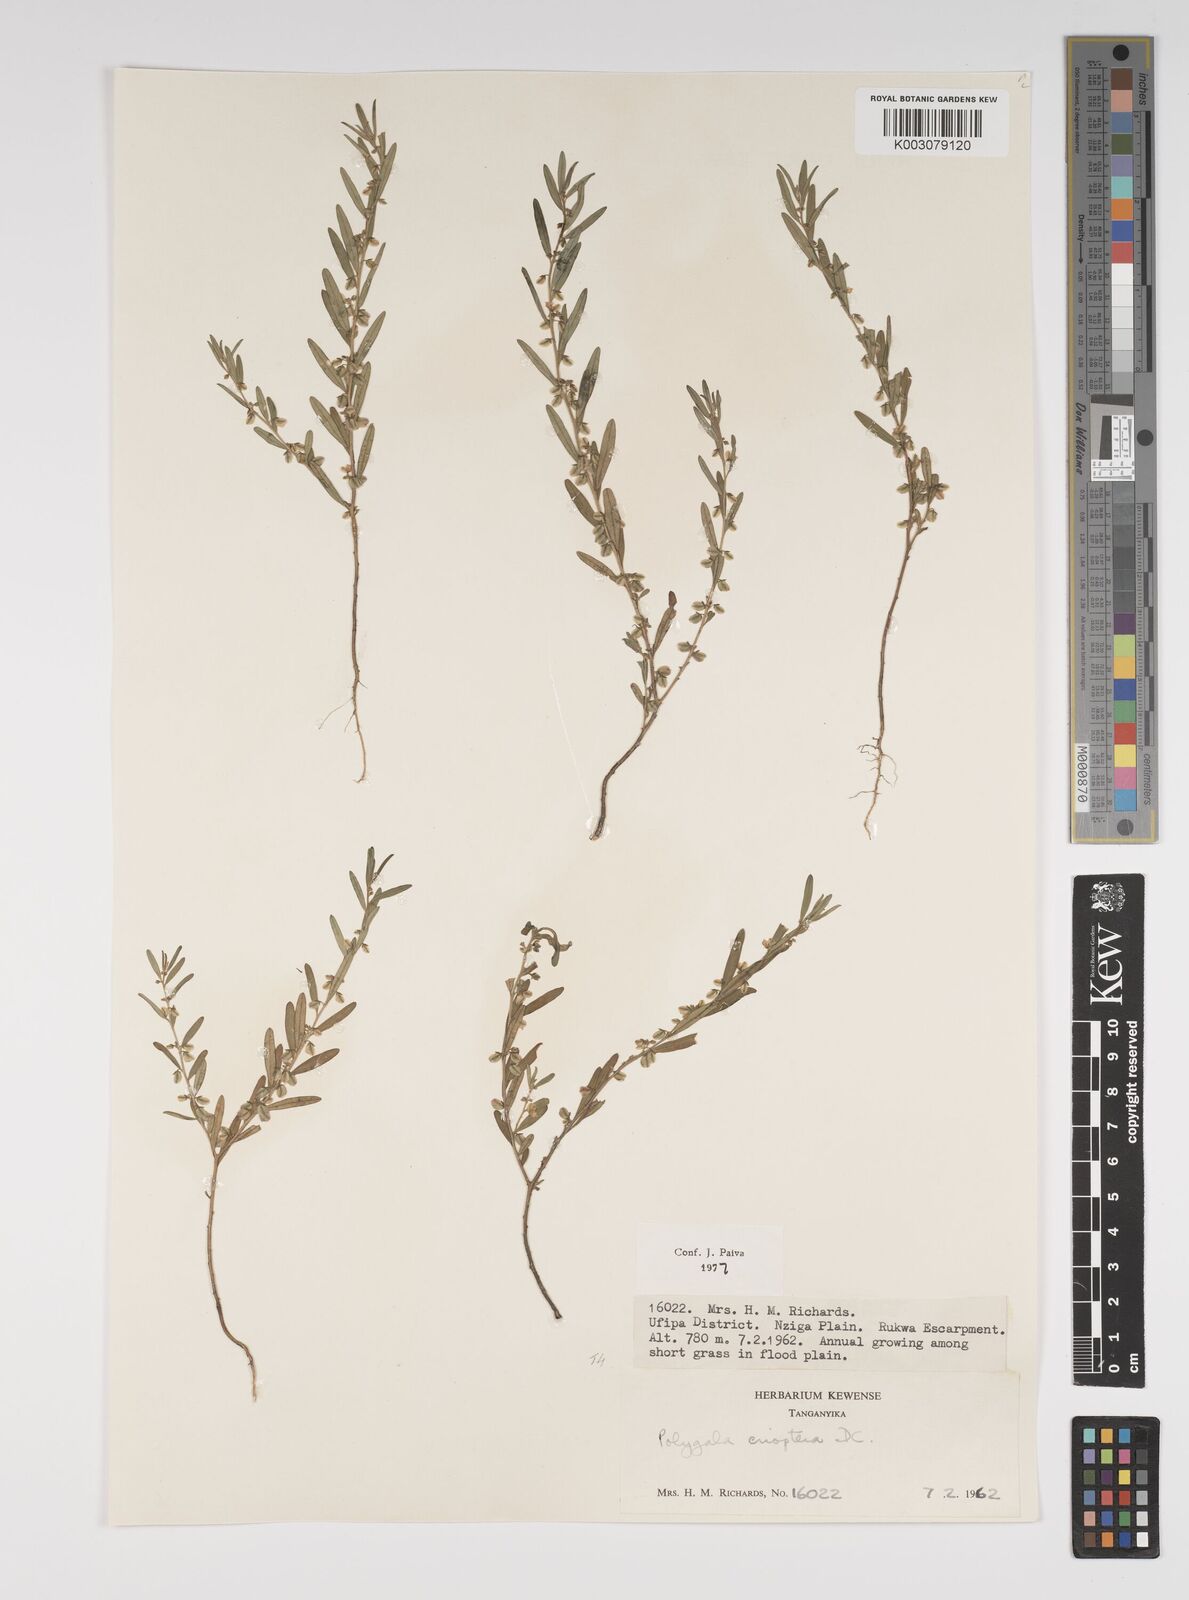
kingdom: Plantae
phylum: Tracheophyta
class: Magnoliopsida
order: Fabales
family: Polygalaceae
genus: Polygala
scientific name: Polygala erioptera
